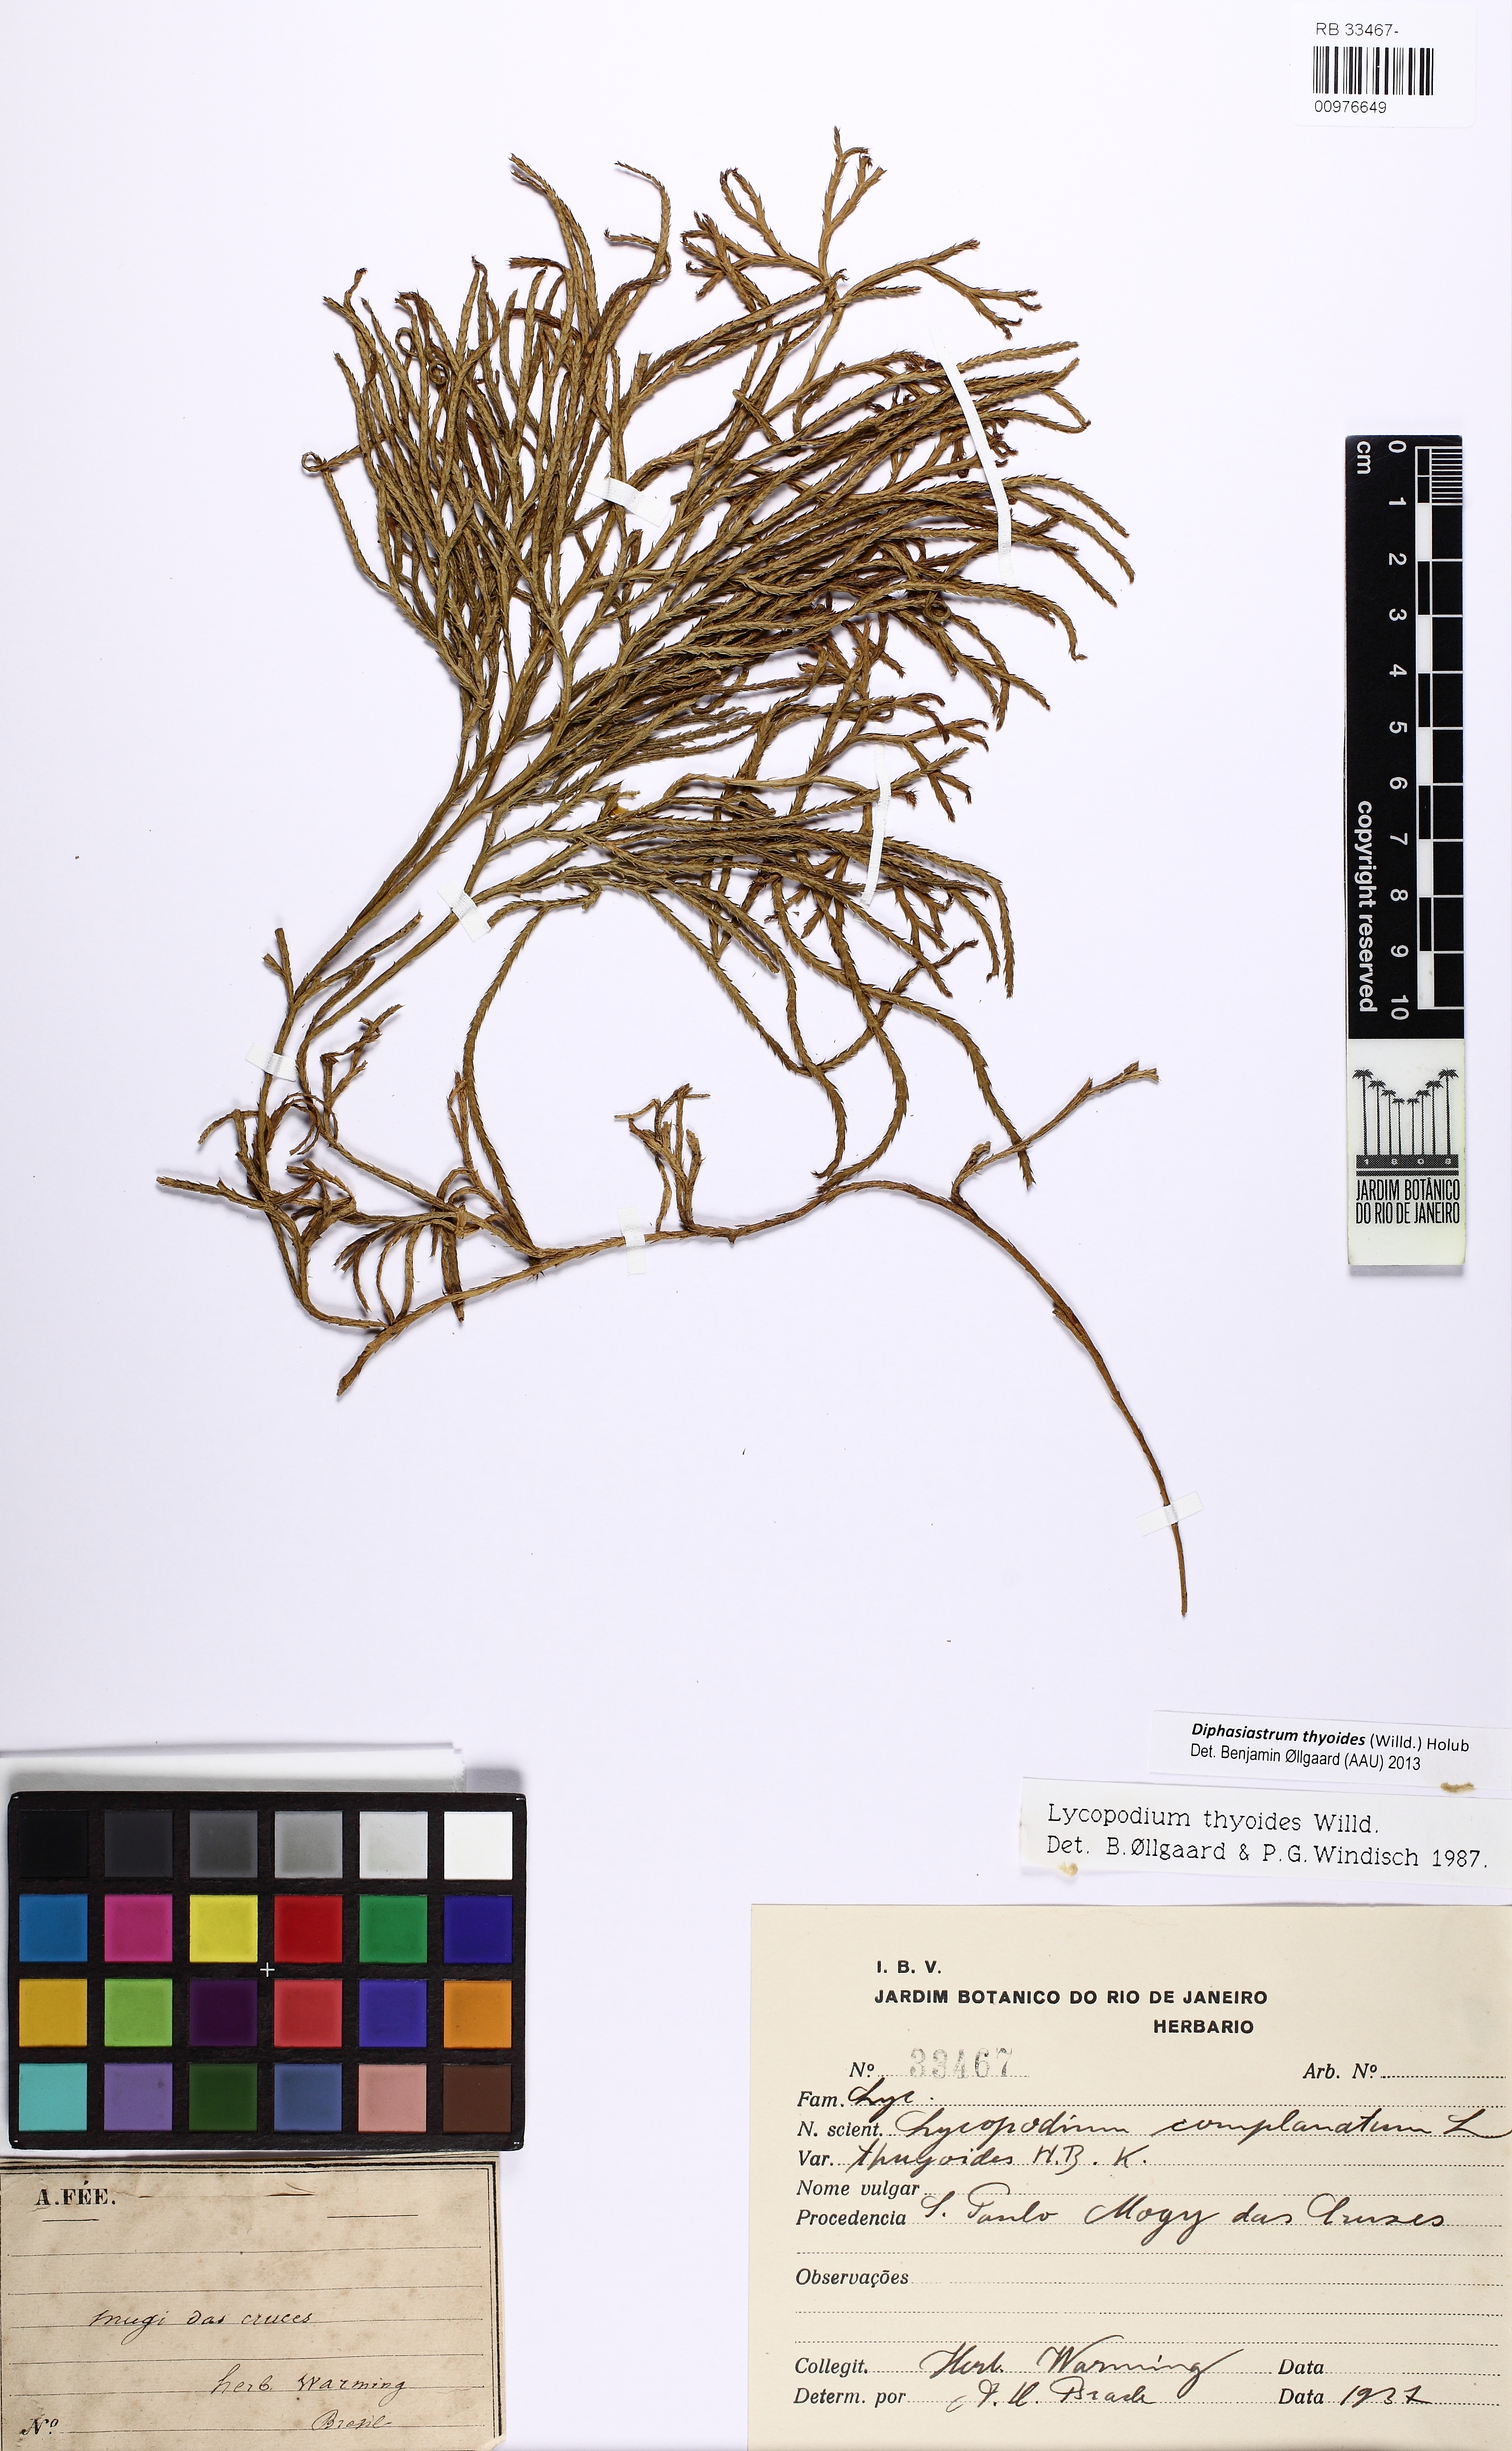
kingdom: Plantae
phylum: Tracheophyta
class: Lycopodiopsida
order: Lycopodiales
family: Lycopodiaceae
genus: Diphasiastrum
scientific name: Diphasiastrum thyoides
